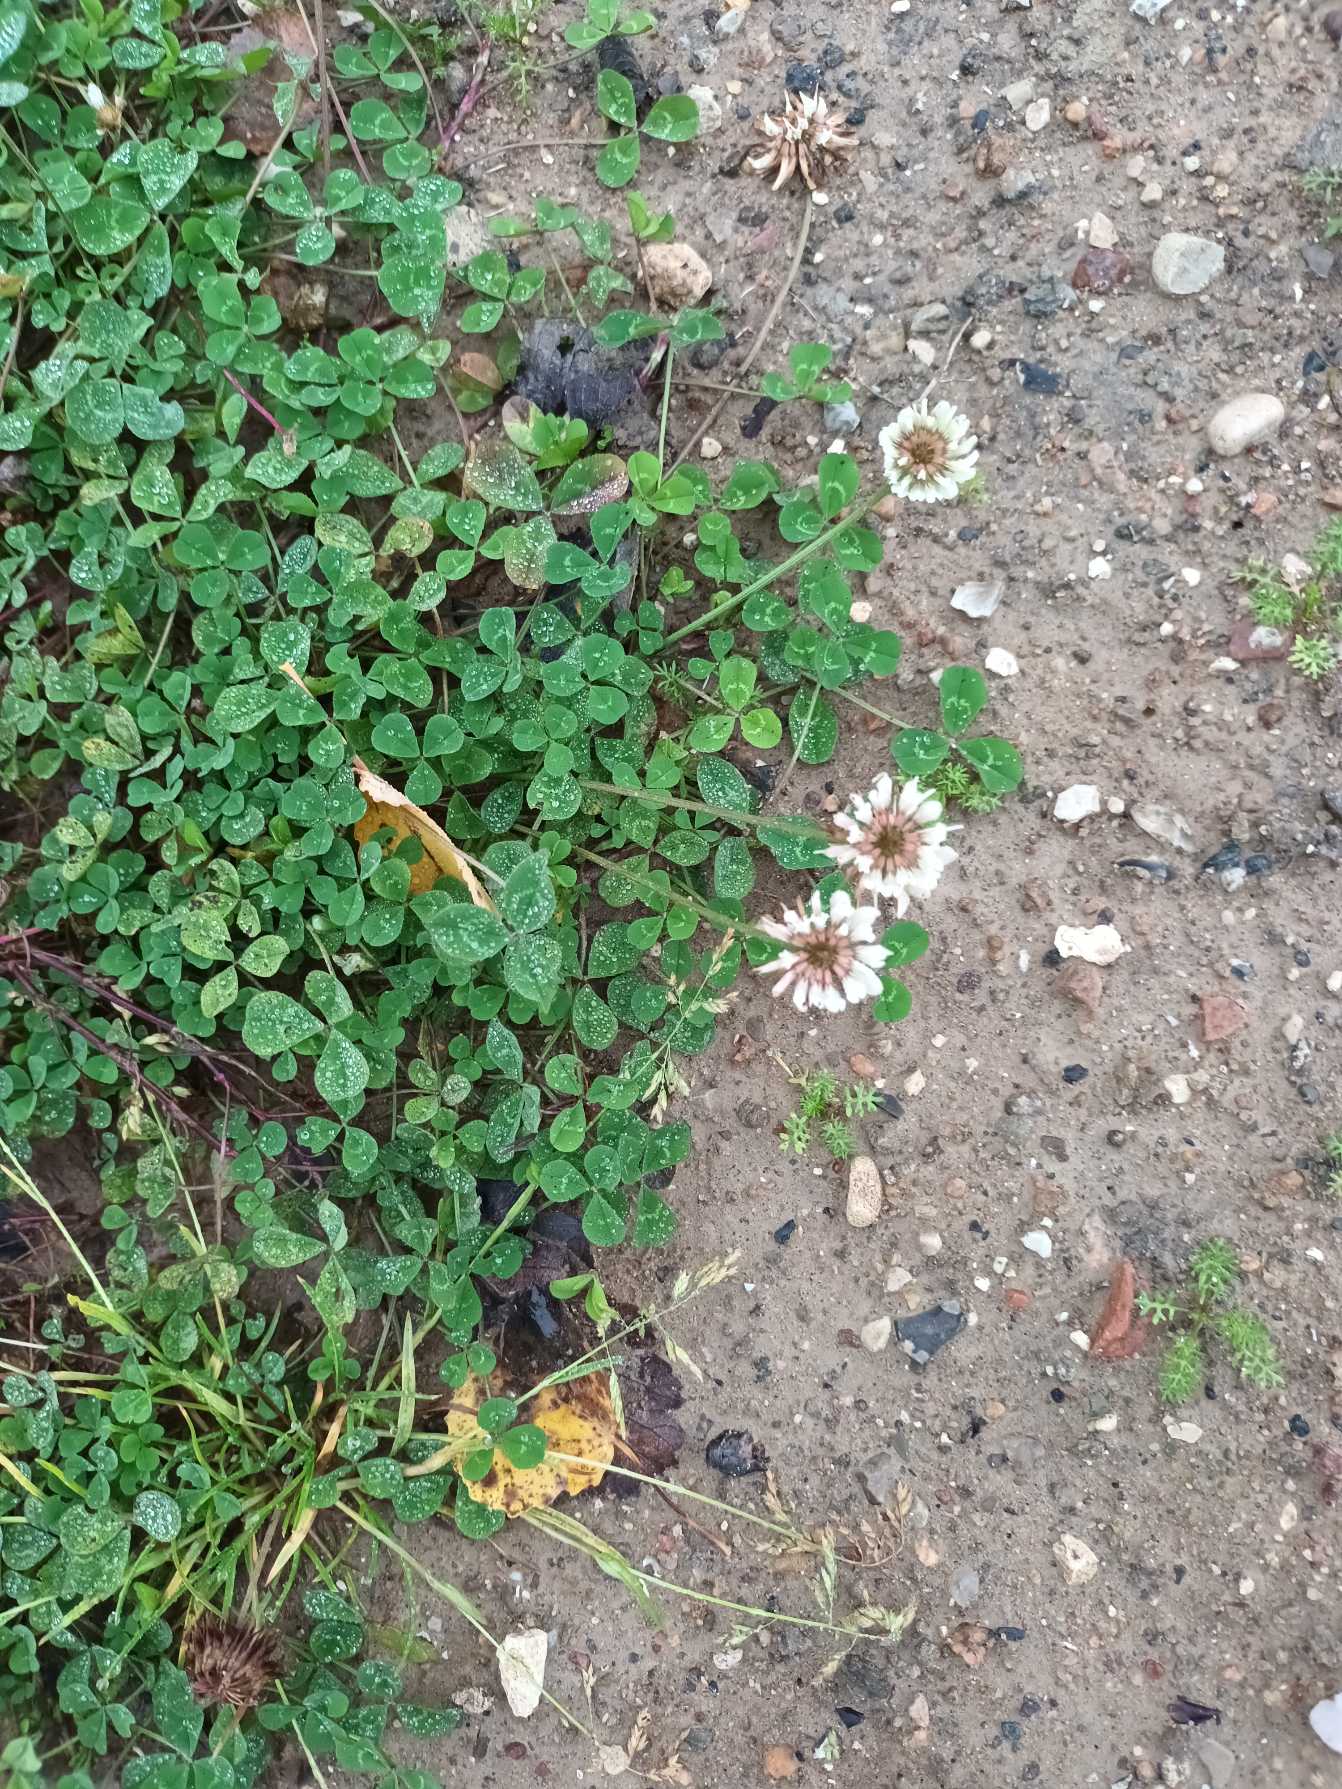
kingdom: Plantae
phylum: Tracheophyta
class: Magnoliopsida
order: Fabales
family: Fabaceae
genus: Trifolium
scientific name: Trifolium repens
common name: Hvid-kløver
